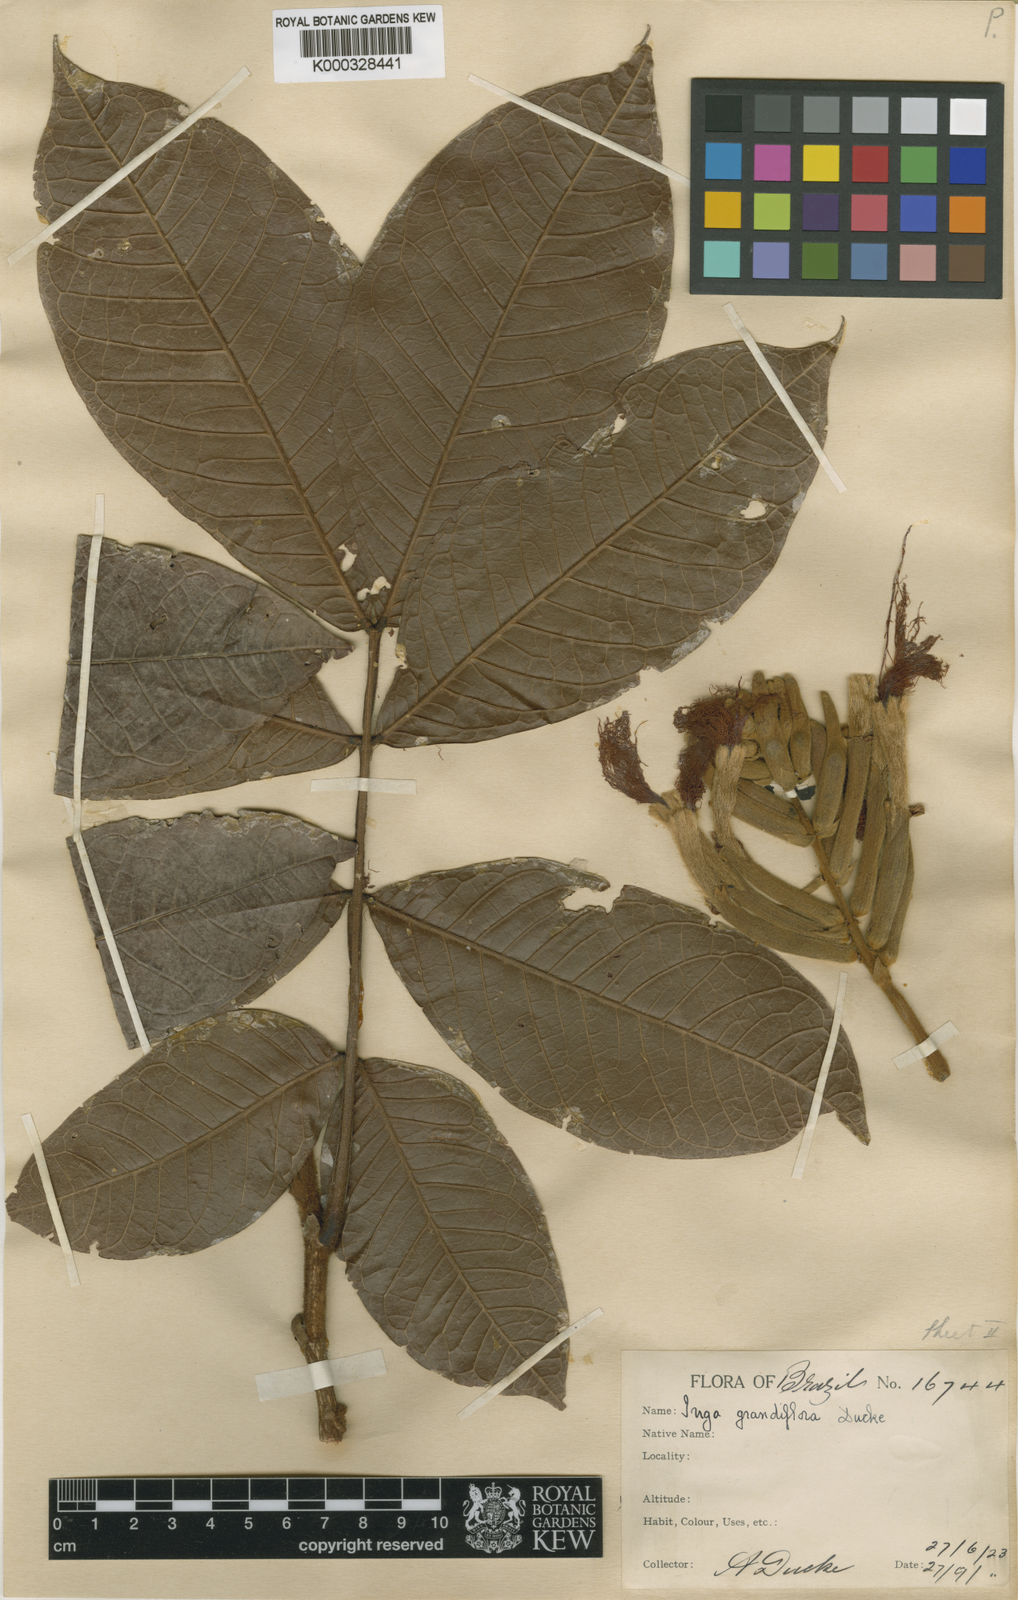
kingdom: Plantae
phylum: Tracheophyta
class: Magnoliopsida
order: Fabales
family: Fabaceae
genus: Inga
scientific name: Inga crassiflora
